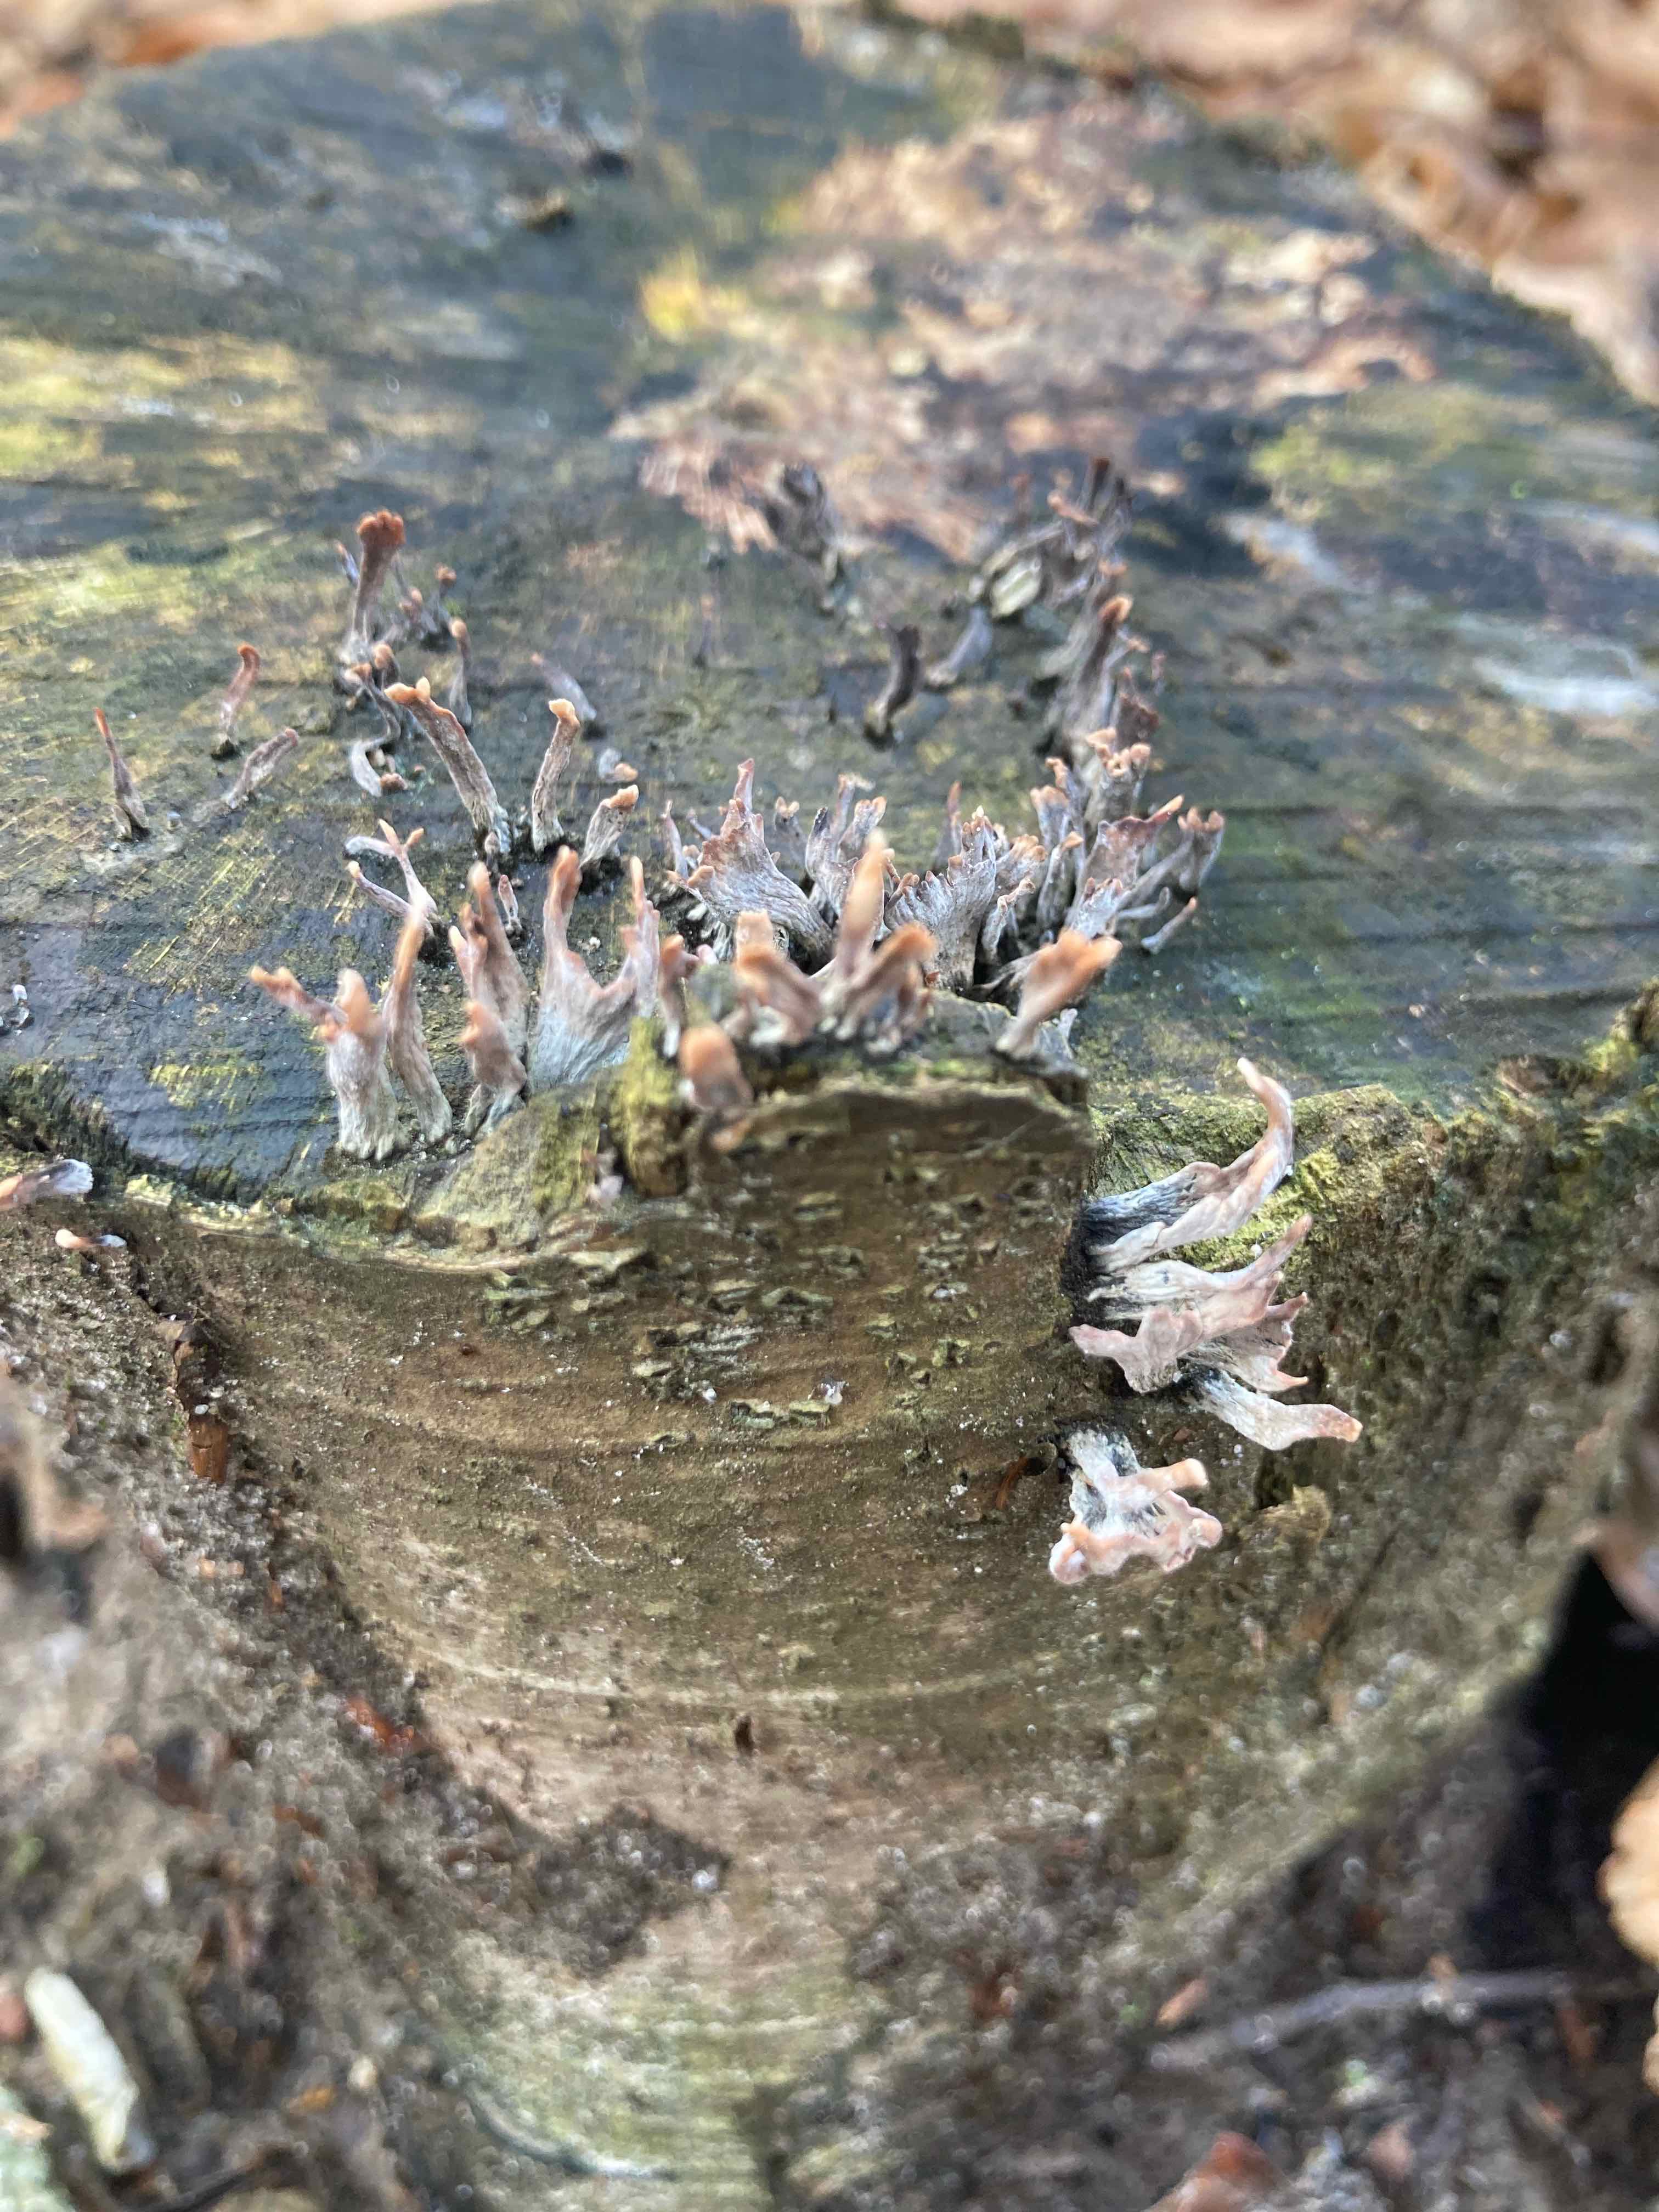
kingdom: Fungi
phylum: Ascomycota
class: Sordariomycetes
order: Xylariales
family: Xylariaceae
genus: Xylaria
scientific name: Xylaria hypoxylon
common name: grenet stødsvamp
